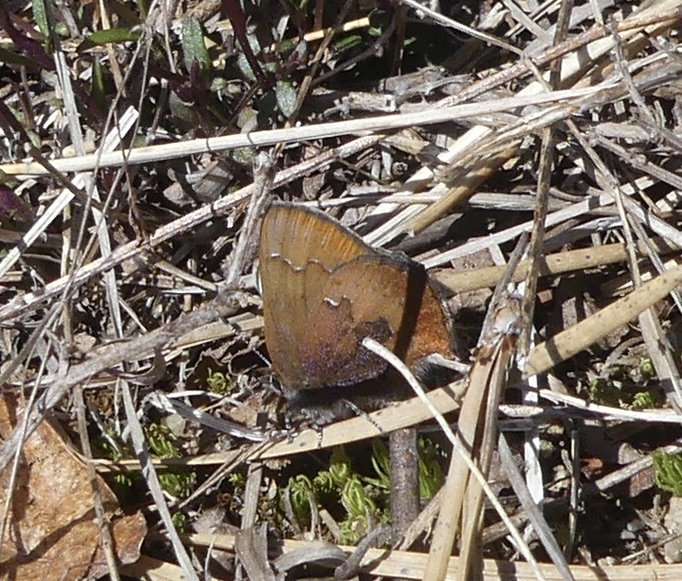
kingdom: Animalia
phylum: Arthropoda
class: Insecta
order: Lepidoptera
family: Lycaenidae
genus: Incisalia
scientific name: Incisalia irioides
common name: Brown Elfin
